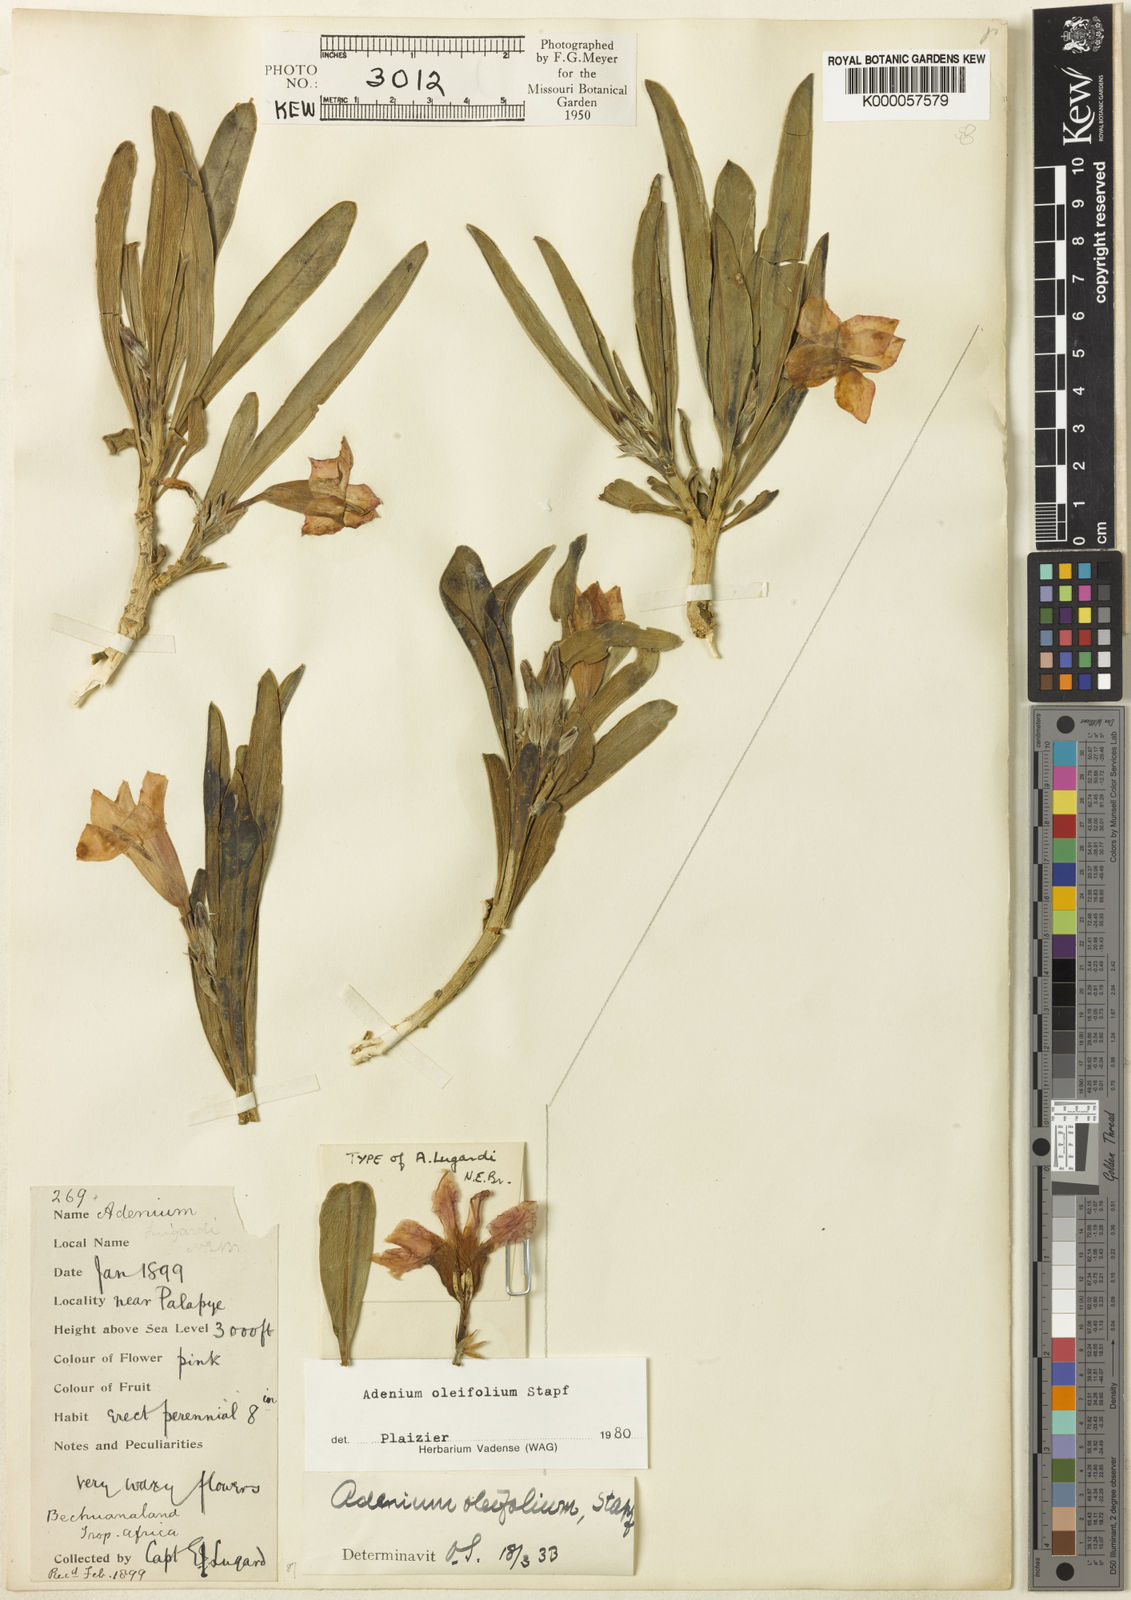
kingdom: Plantae
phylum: Tracheophyta
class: Magnoliopsida
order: Gentianales
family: Apocynaceae
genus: Adenium
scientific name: Adenium obesum
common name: Desert-rose
